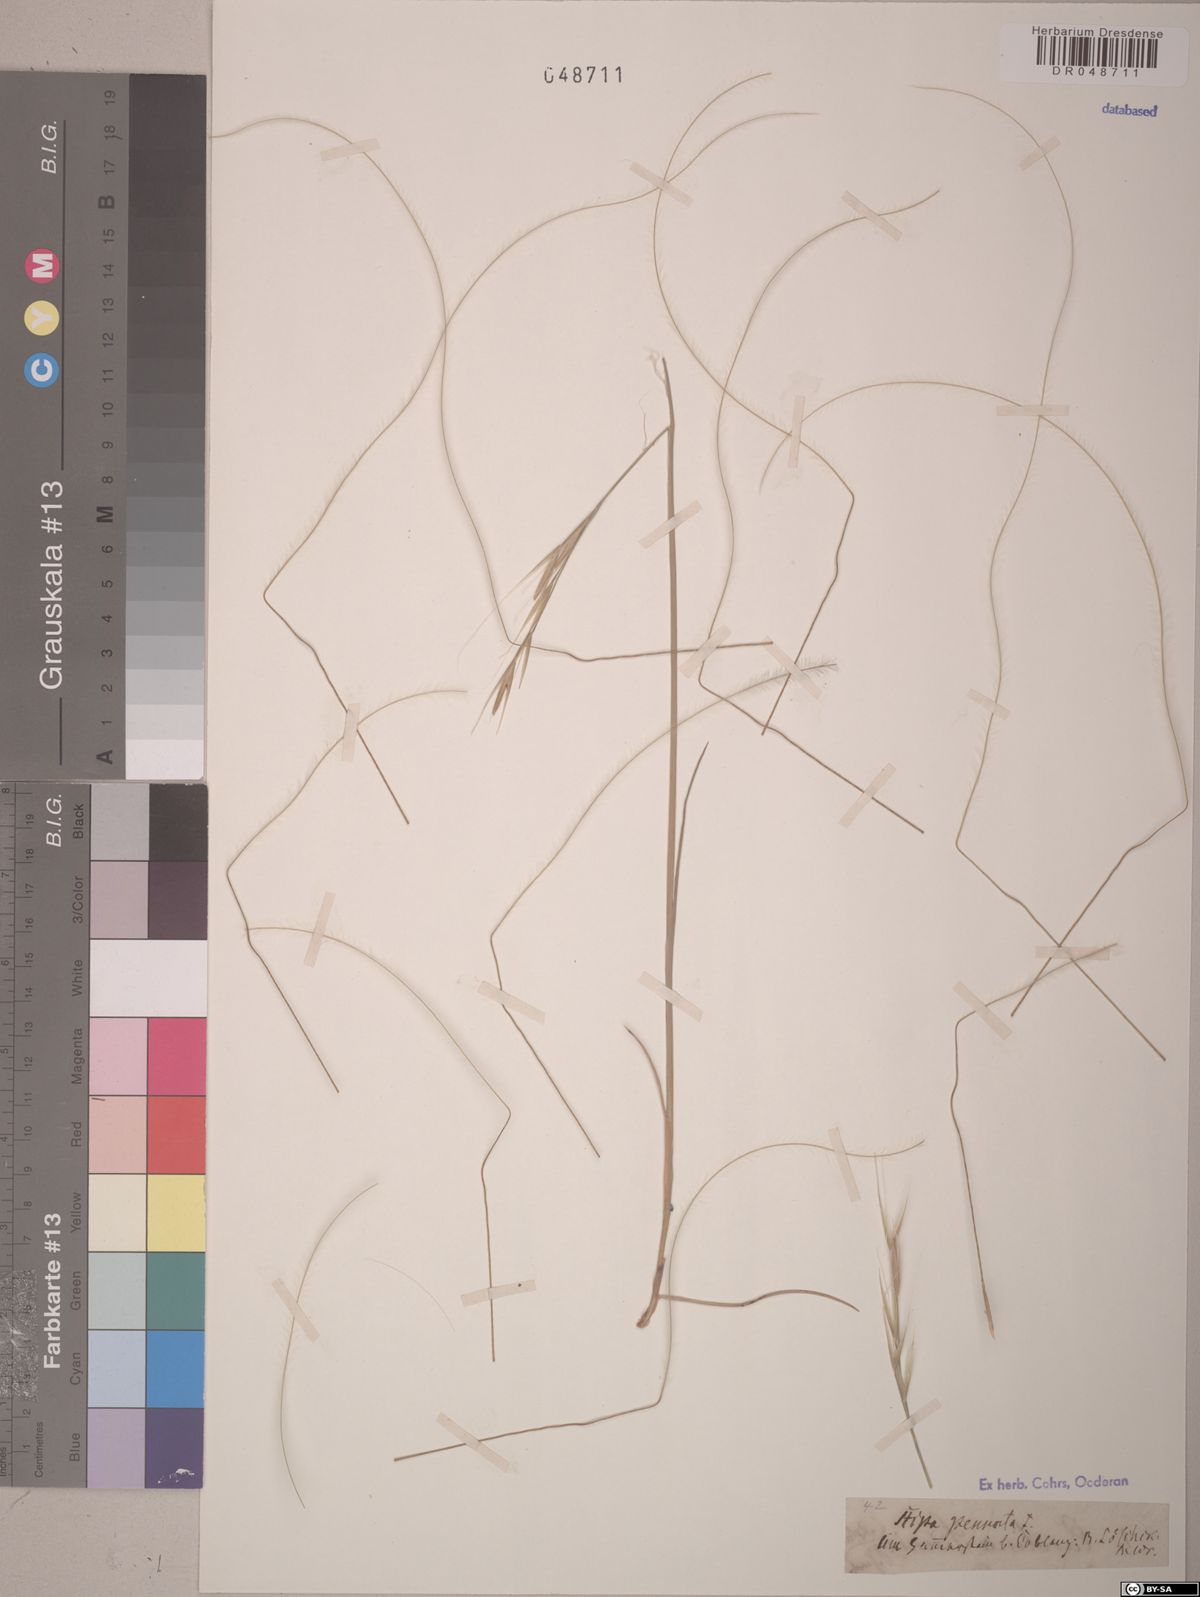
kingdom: Plantae
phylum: Tracheophyta
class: Liliopsida
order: Poales
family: Poaceae
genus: Stipa
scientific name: Stipa pennata
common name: European feather grass
